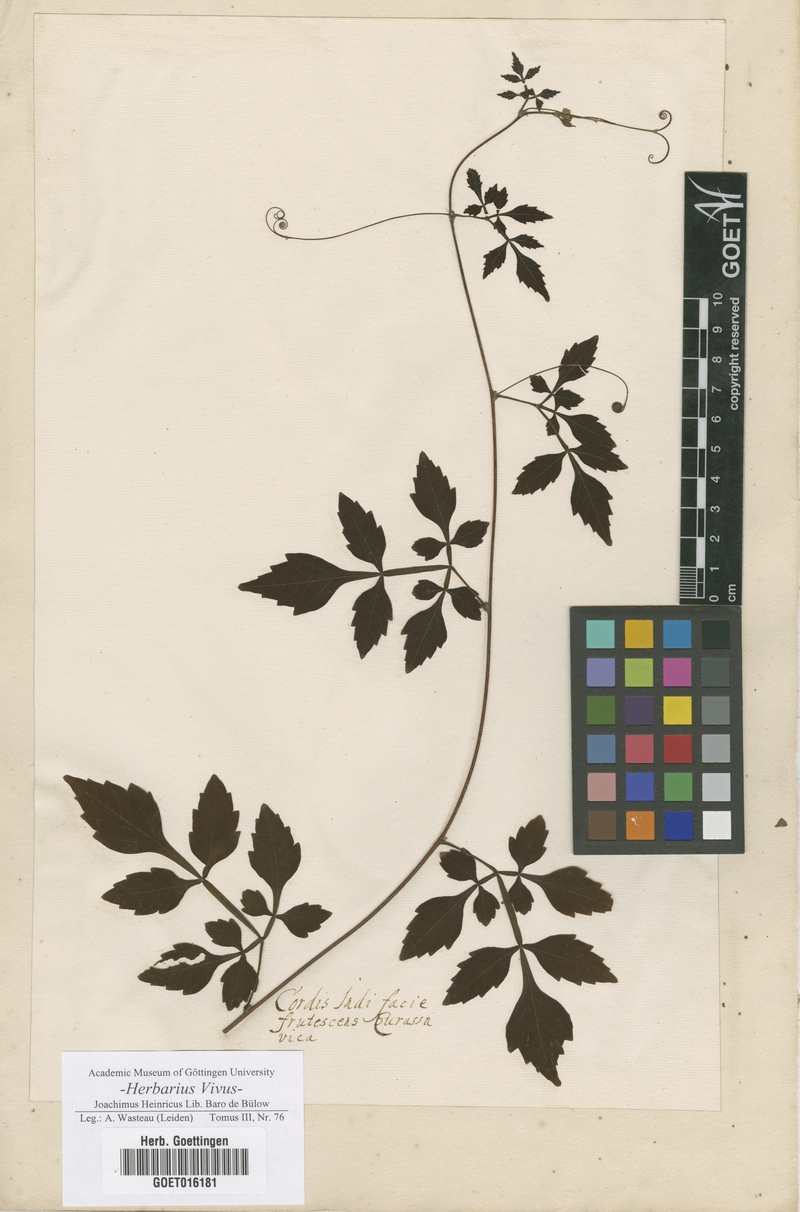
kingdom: Plantae
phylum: Tracheophyta
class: Magnoliopsida
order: Sapindales
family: Sapindaceae
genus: Serjania
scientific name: Serjania curassavica
